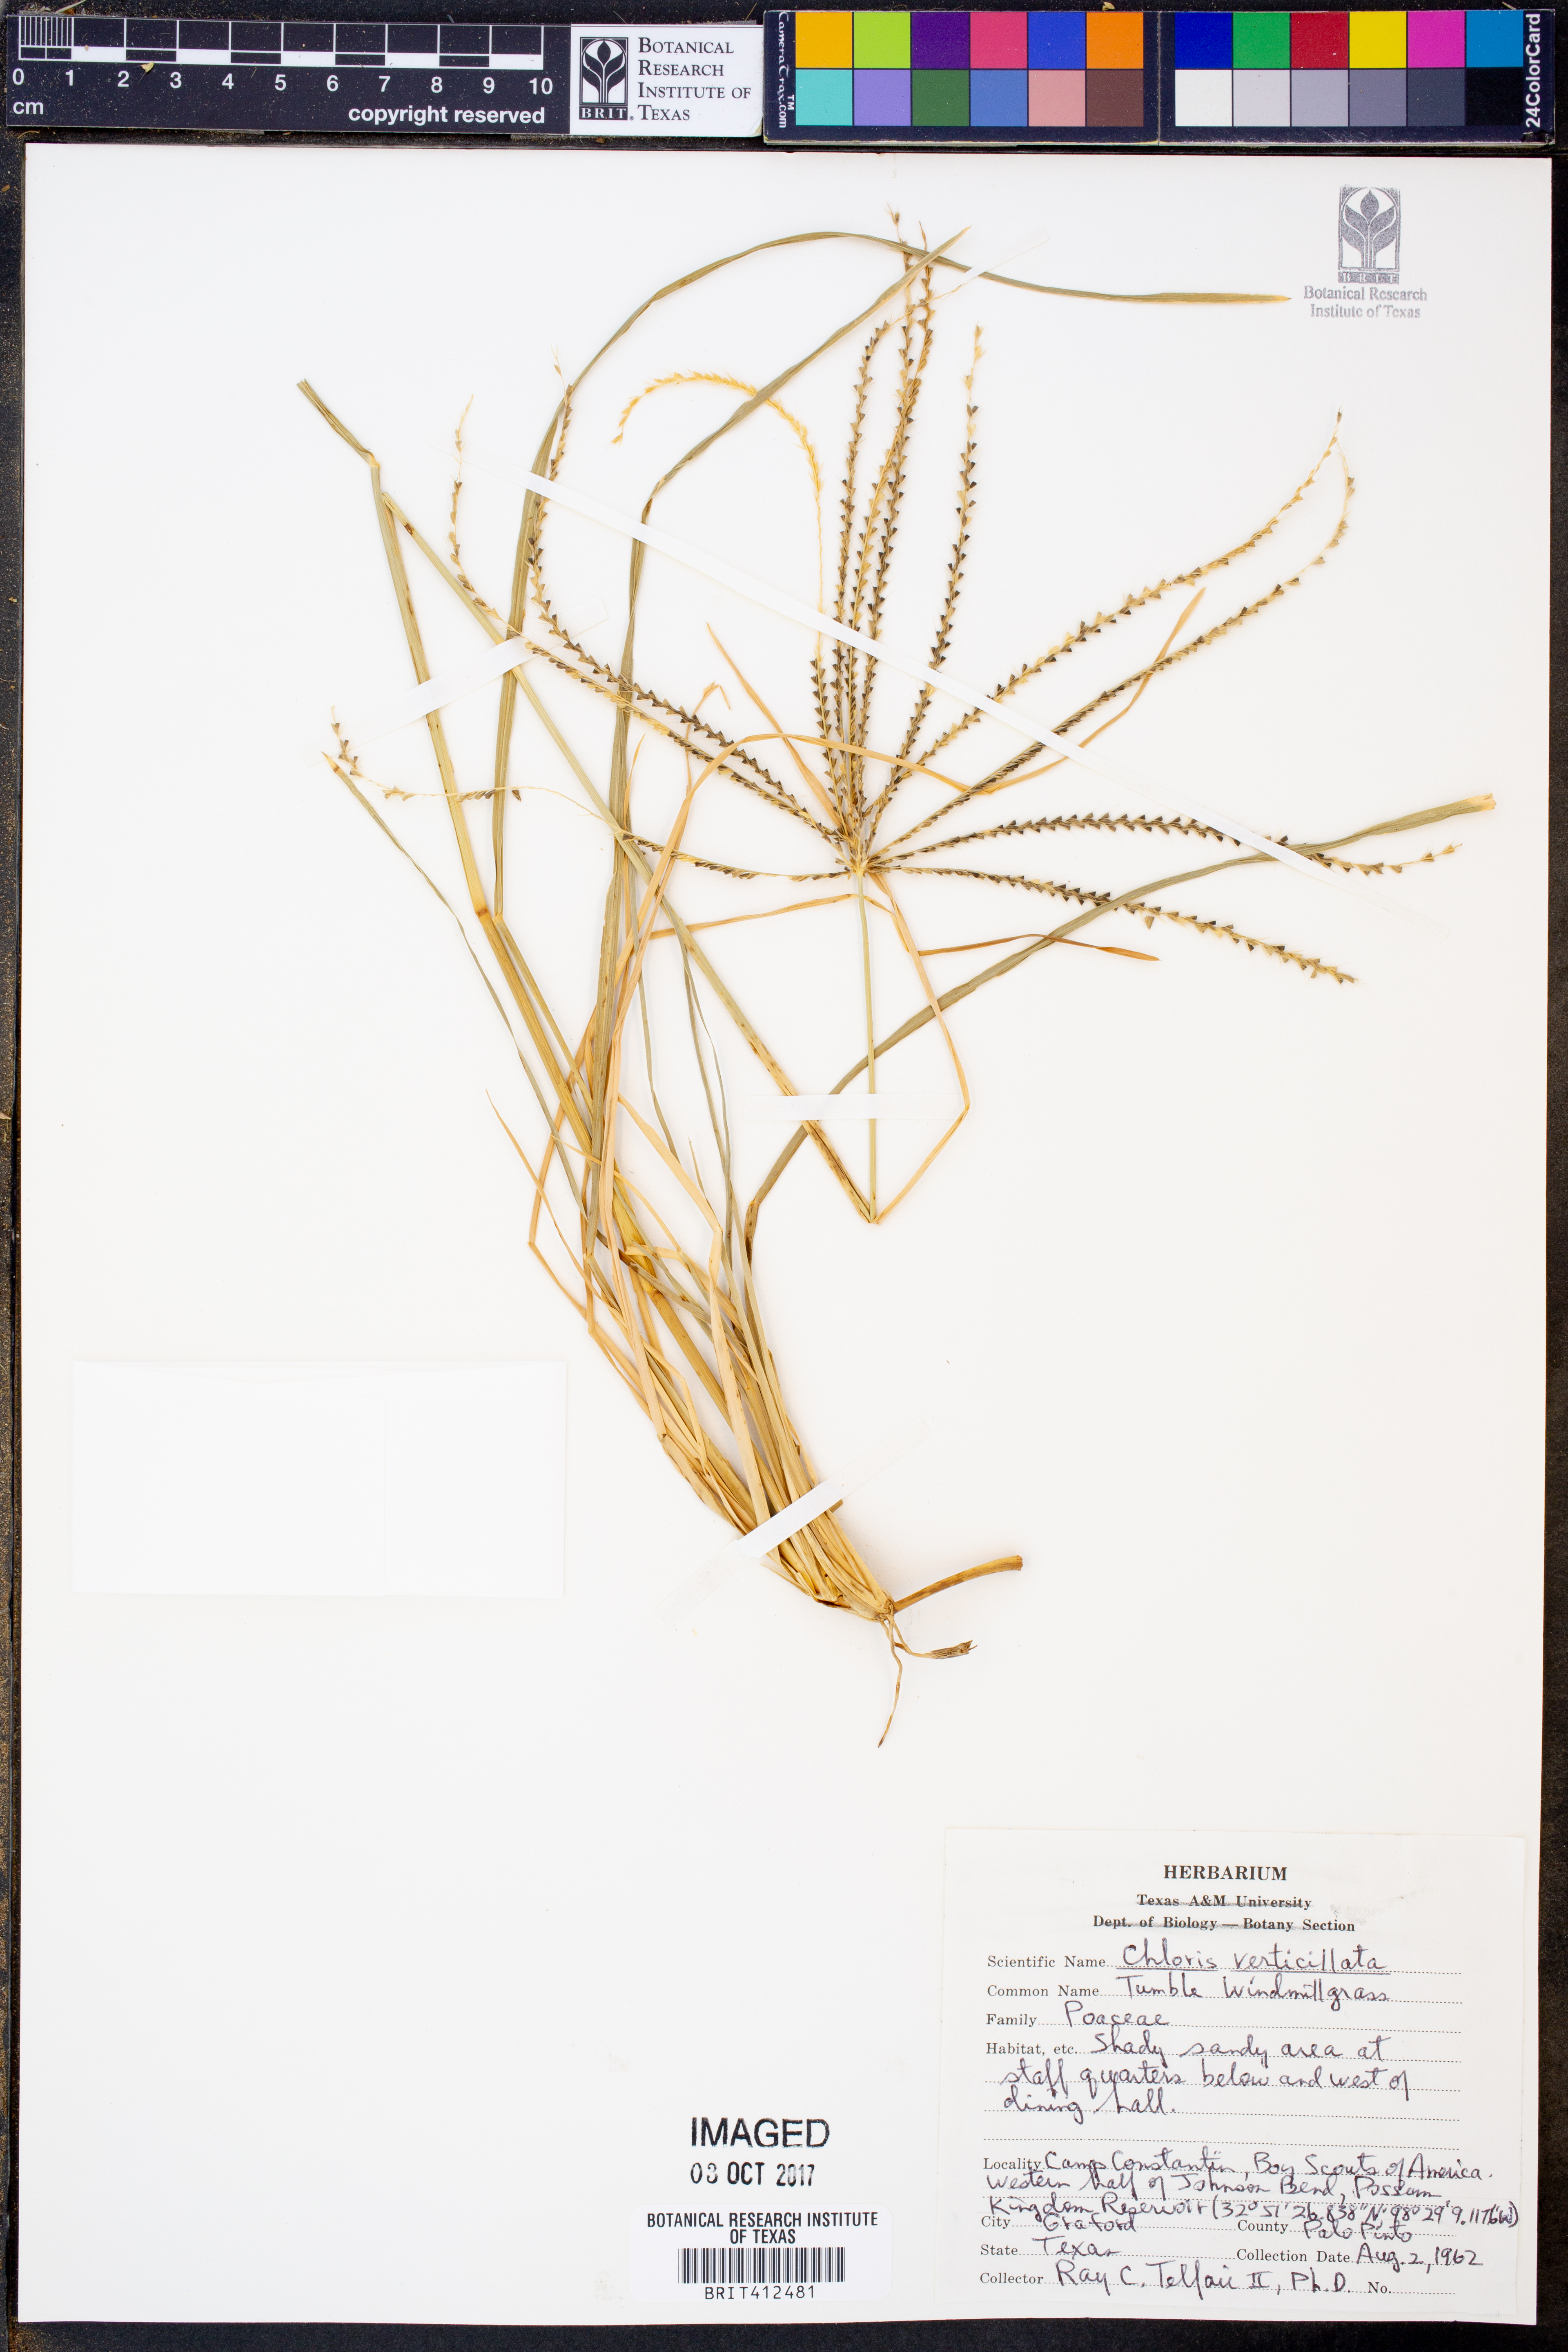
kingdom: Plantae
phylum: Tracheophyta
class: Liliopsida
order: Poales
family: Poaceae
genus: Chloris
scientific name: Chloris verticillata
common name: Tumble windmill grass
